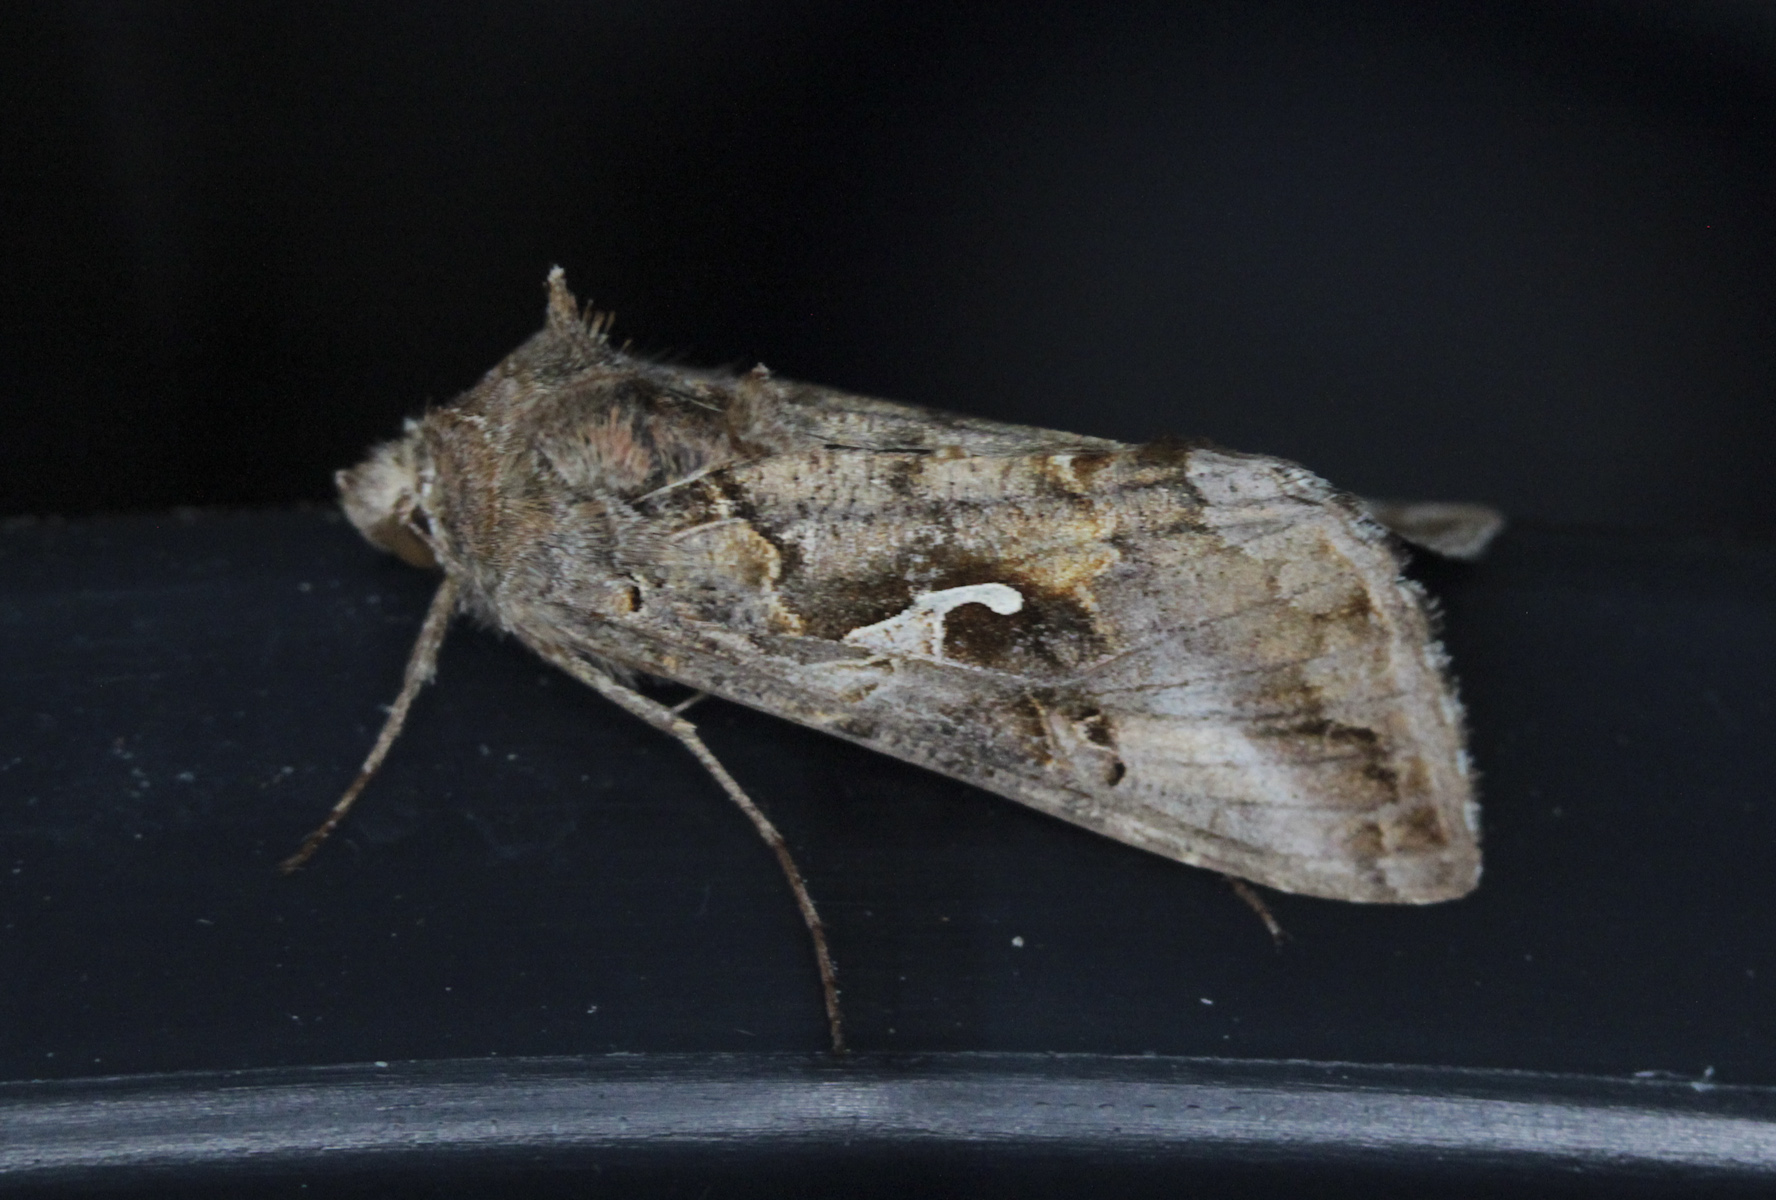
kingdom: Animalia
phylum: Arthropoda
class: Insecta
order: Lepidoptera
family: Noctuidae
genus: Autographa
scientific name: Autographa gamma
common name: Silver y
